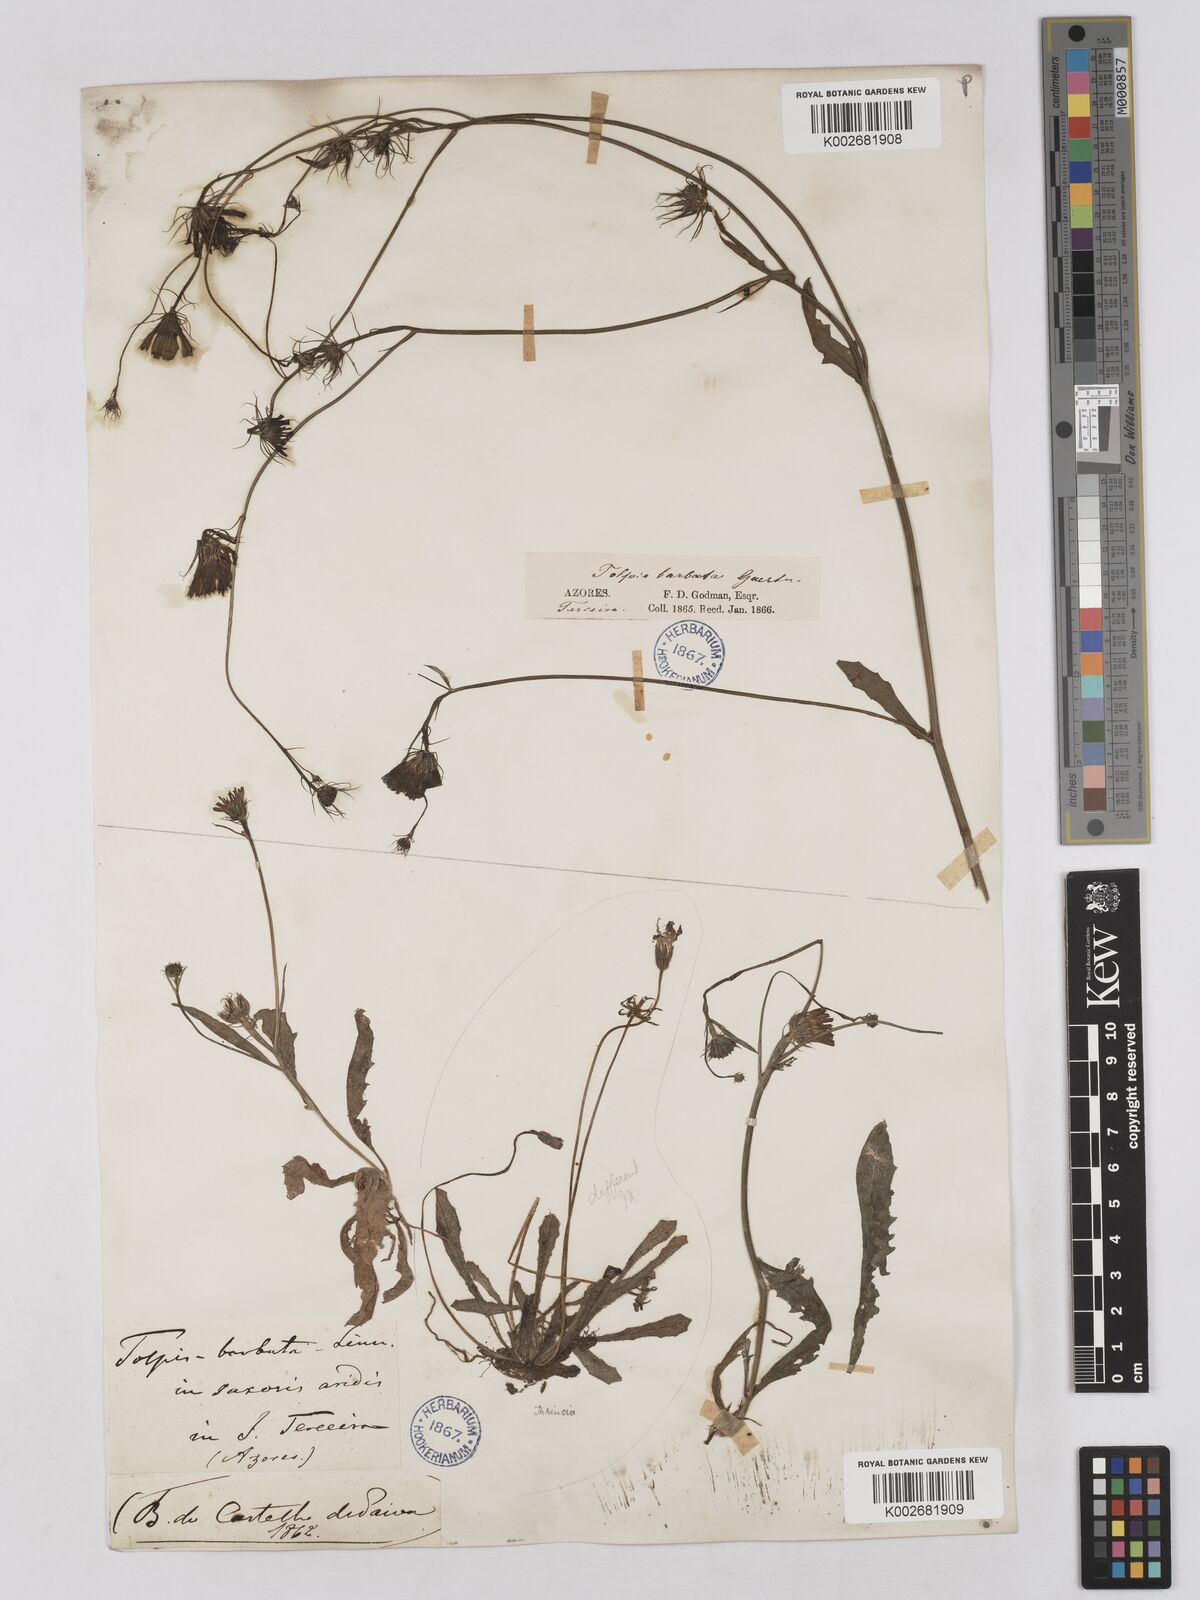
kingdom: Plantae
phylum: Tracheophyta
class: Magnoliopsida
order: Asterales
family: Asteraceae
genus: Tolpis
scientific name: Tolpis barbata
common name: Yellow hawkweed
